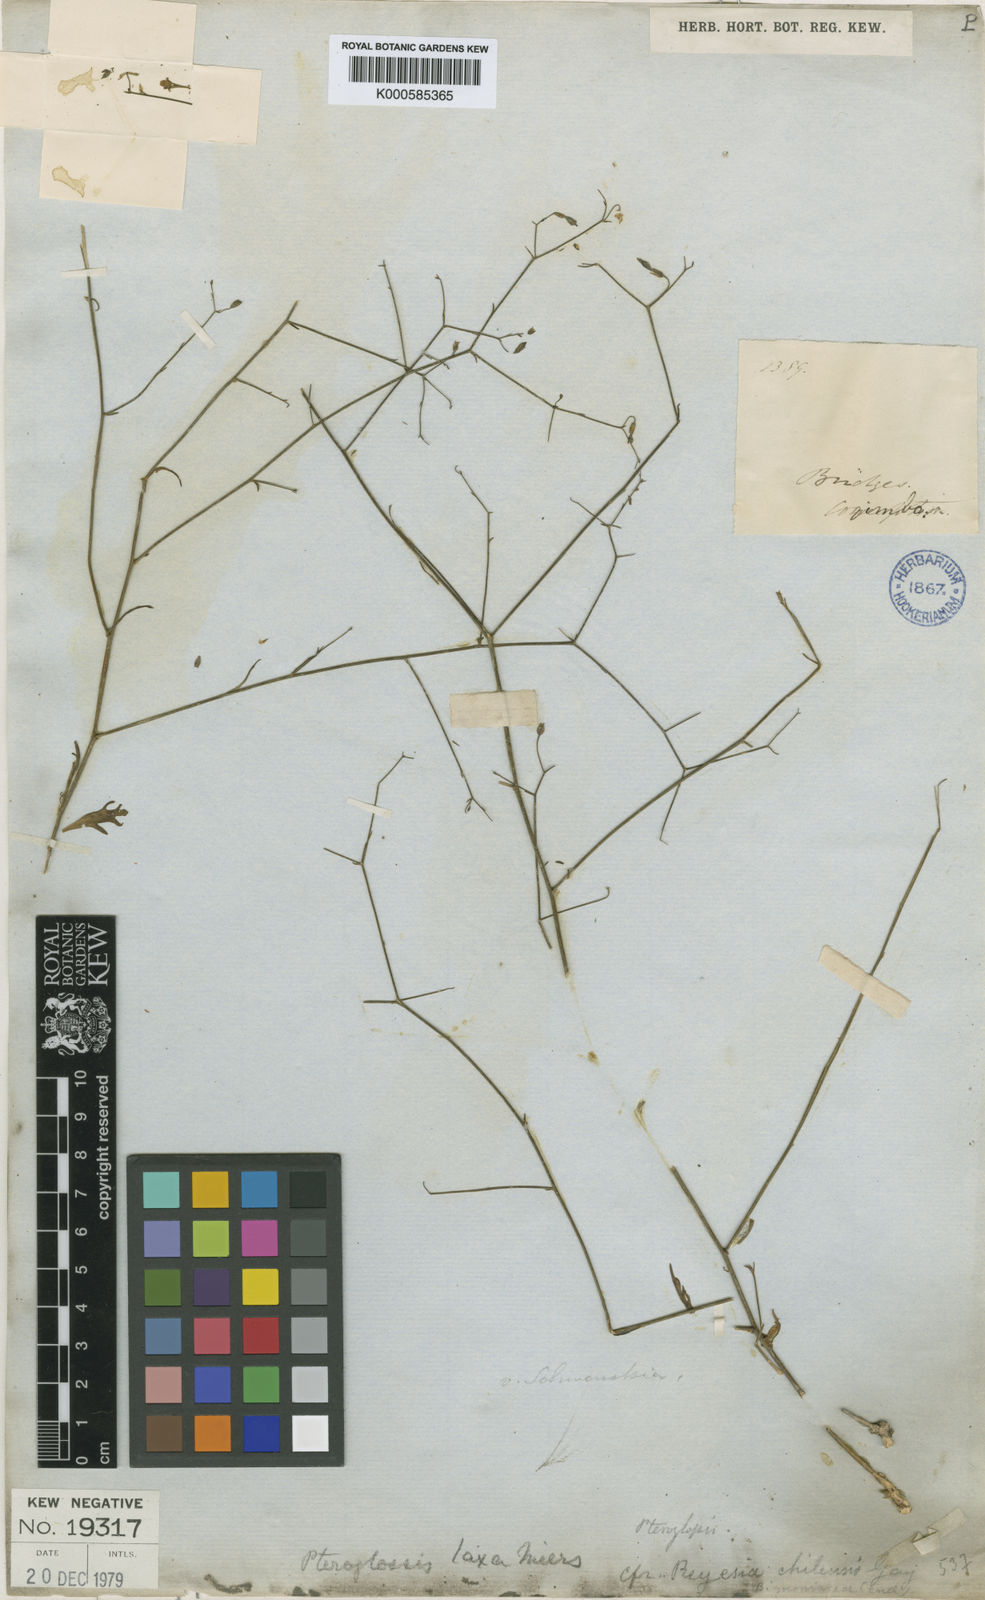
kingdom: Plantae
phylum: Tracheophyta
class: Magnoliopsida
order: Solanales
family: Solanaceae
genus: Reyesia
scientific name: Reyesia
